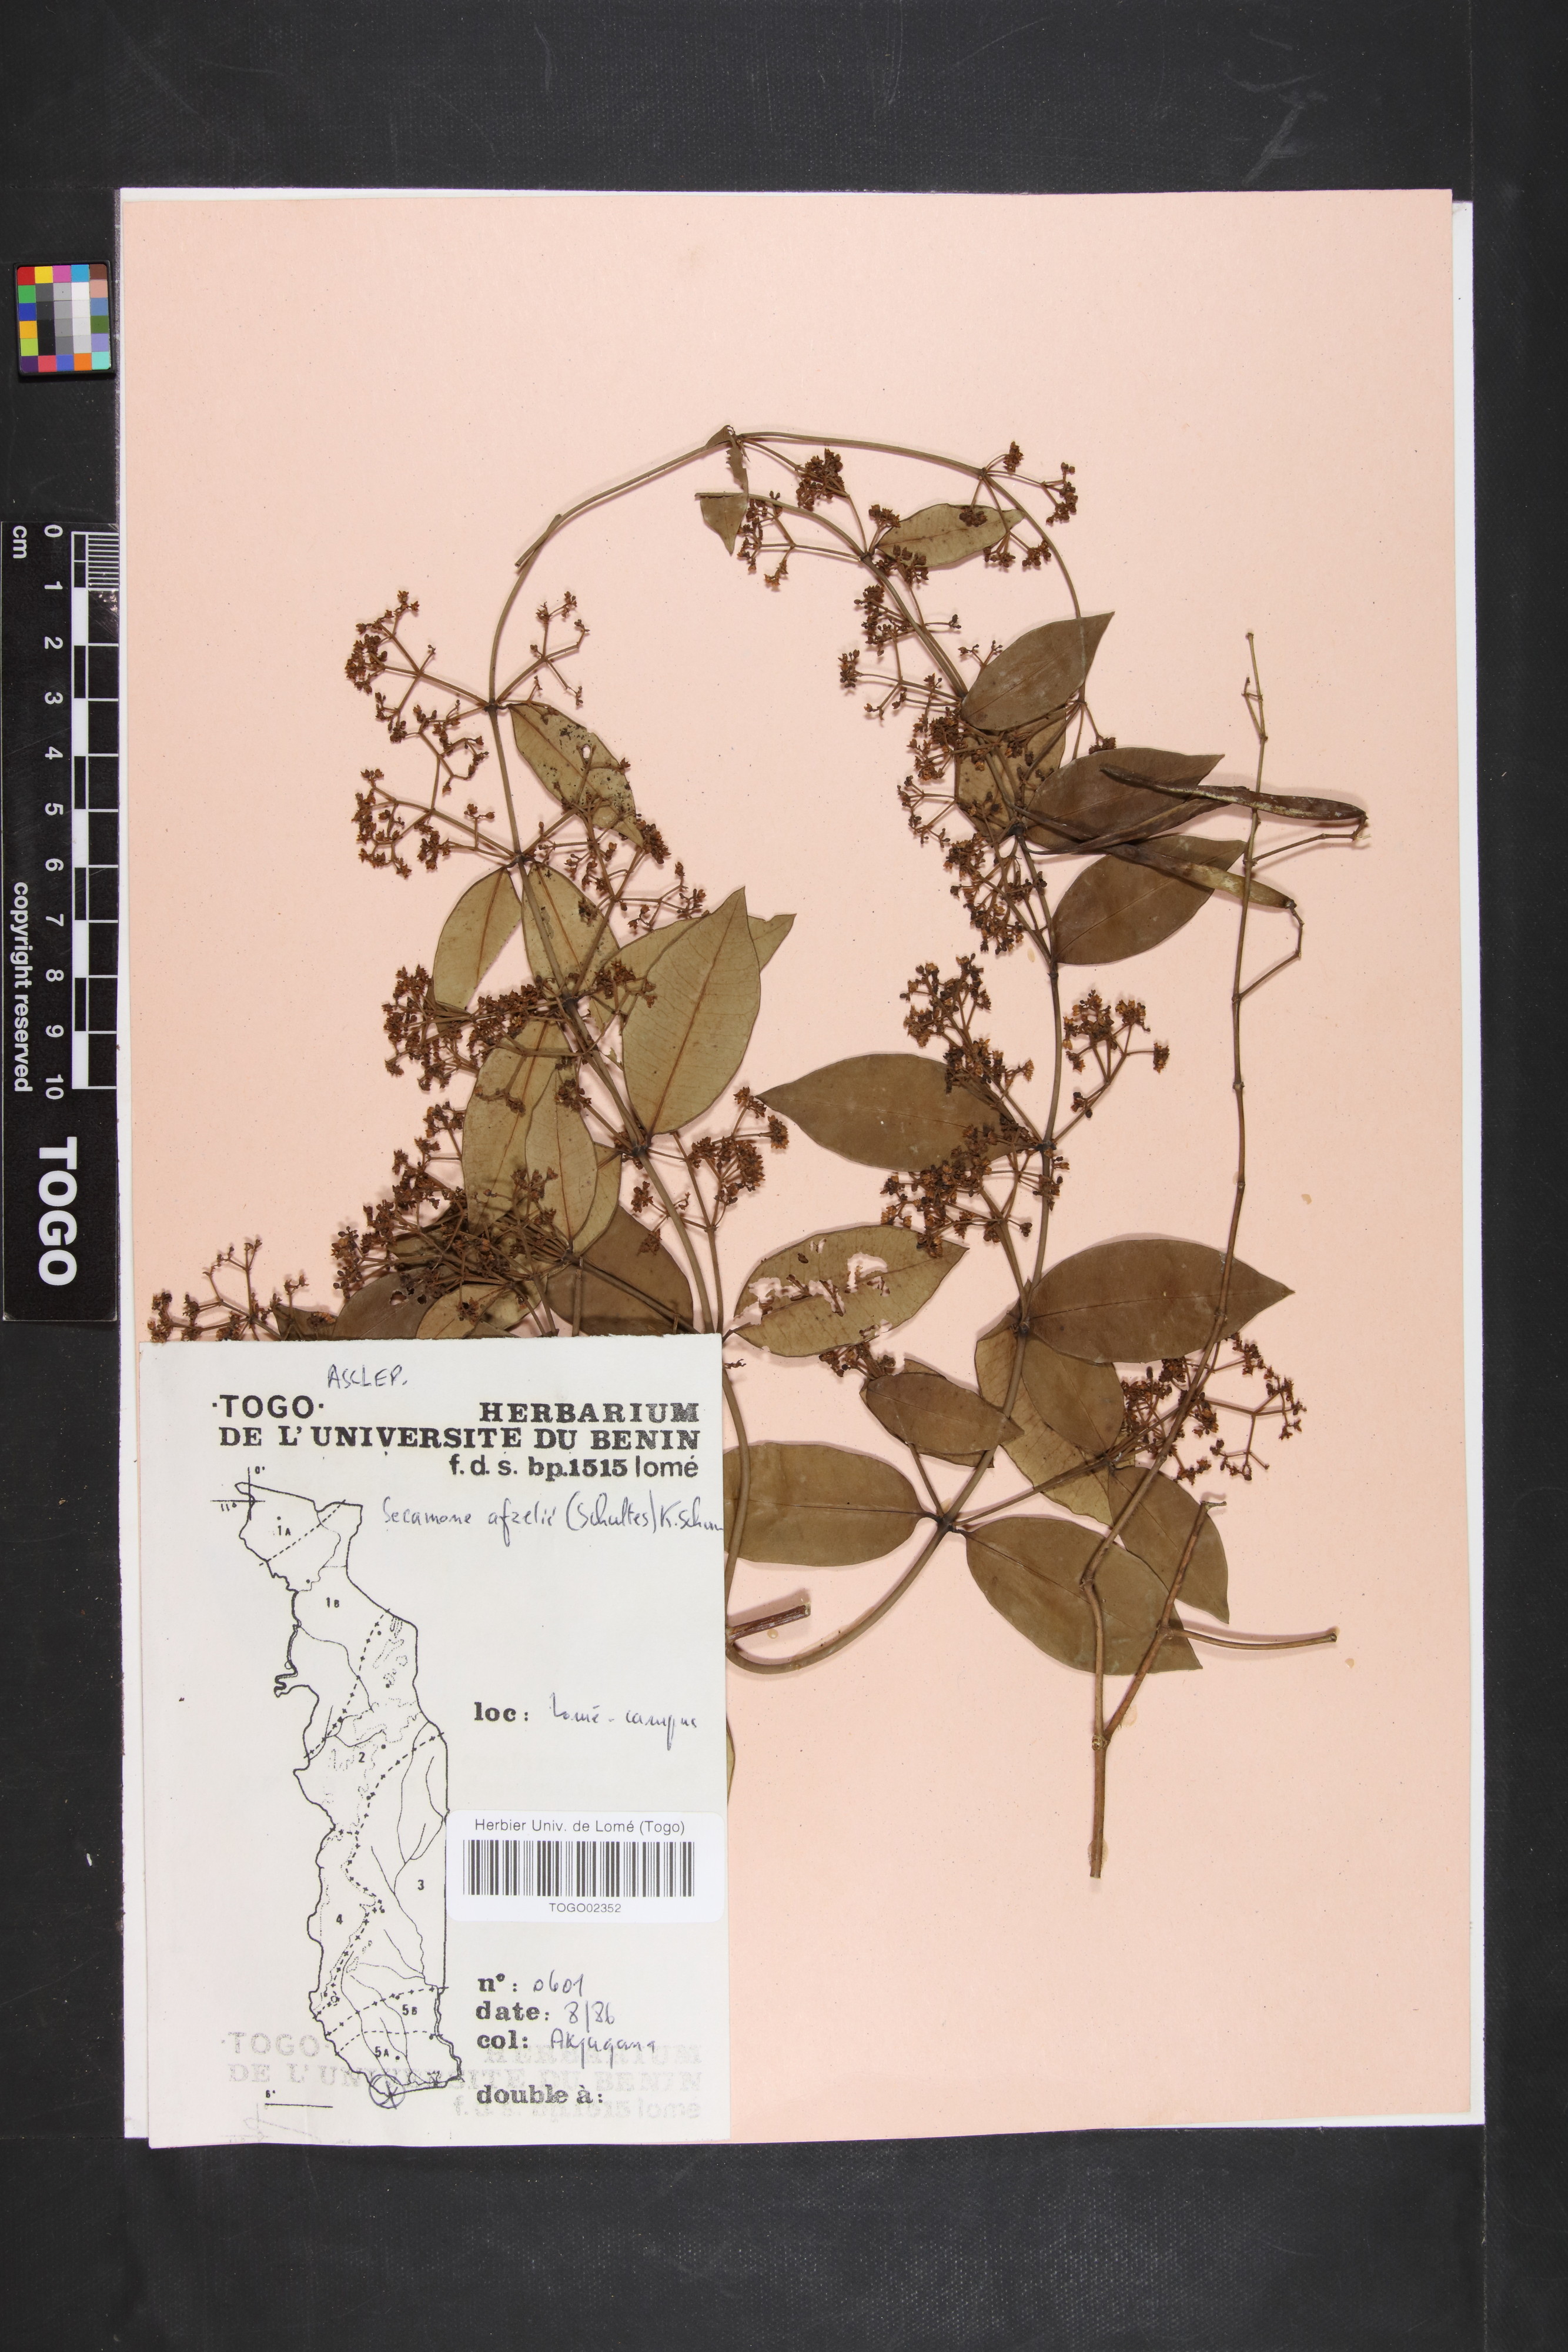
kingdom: Plantae
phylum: Tracheophyta
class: Magnoliopsida
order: Gentianales
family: Apocynaceae
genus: Secamone
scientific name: Secamone afzelii
